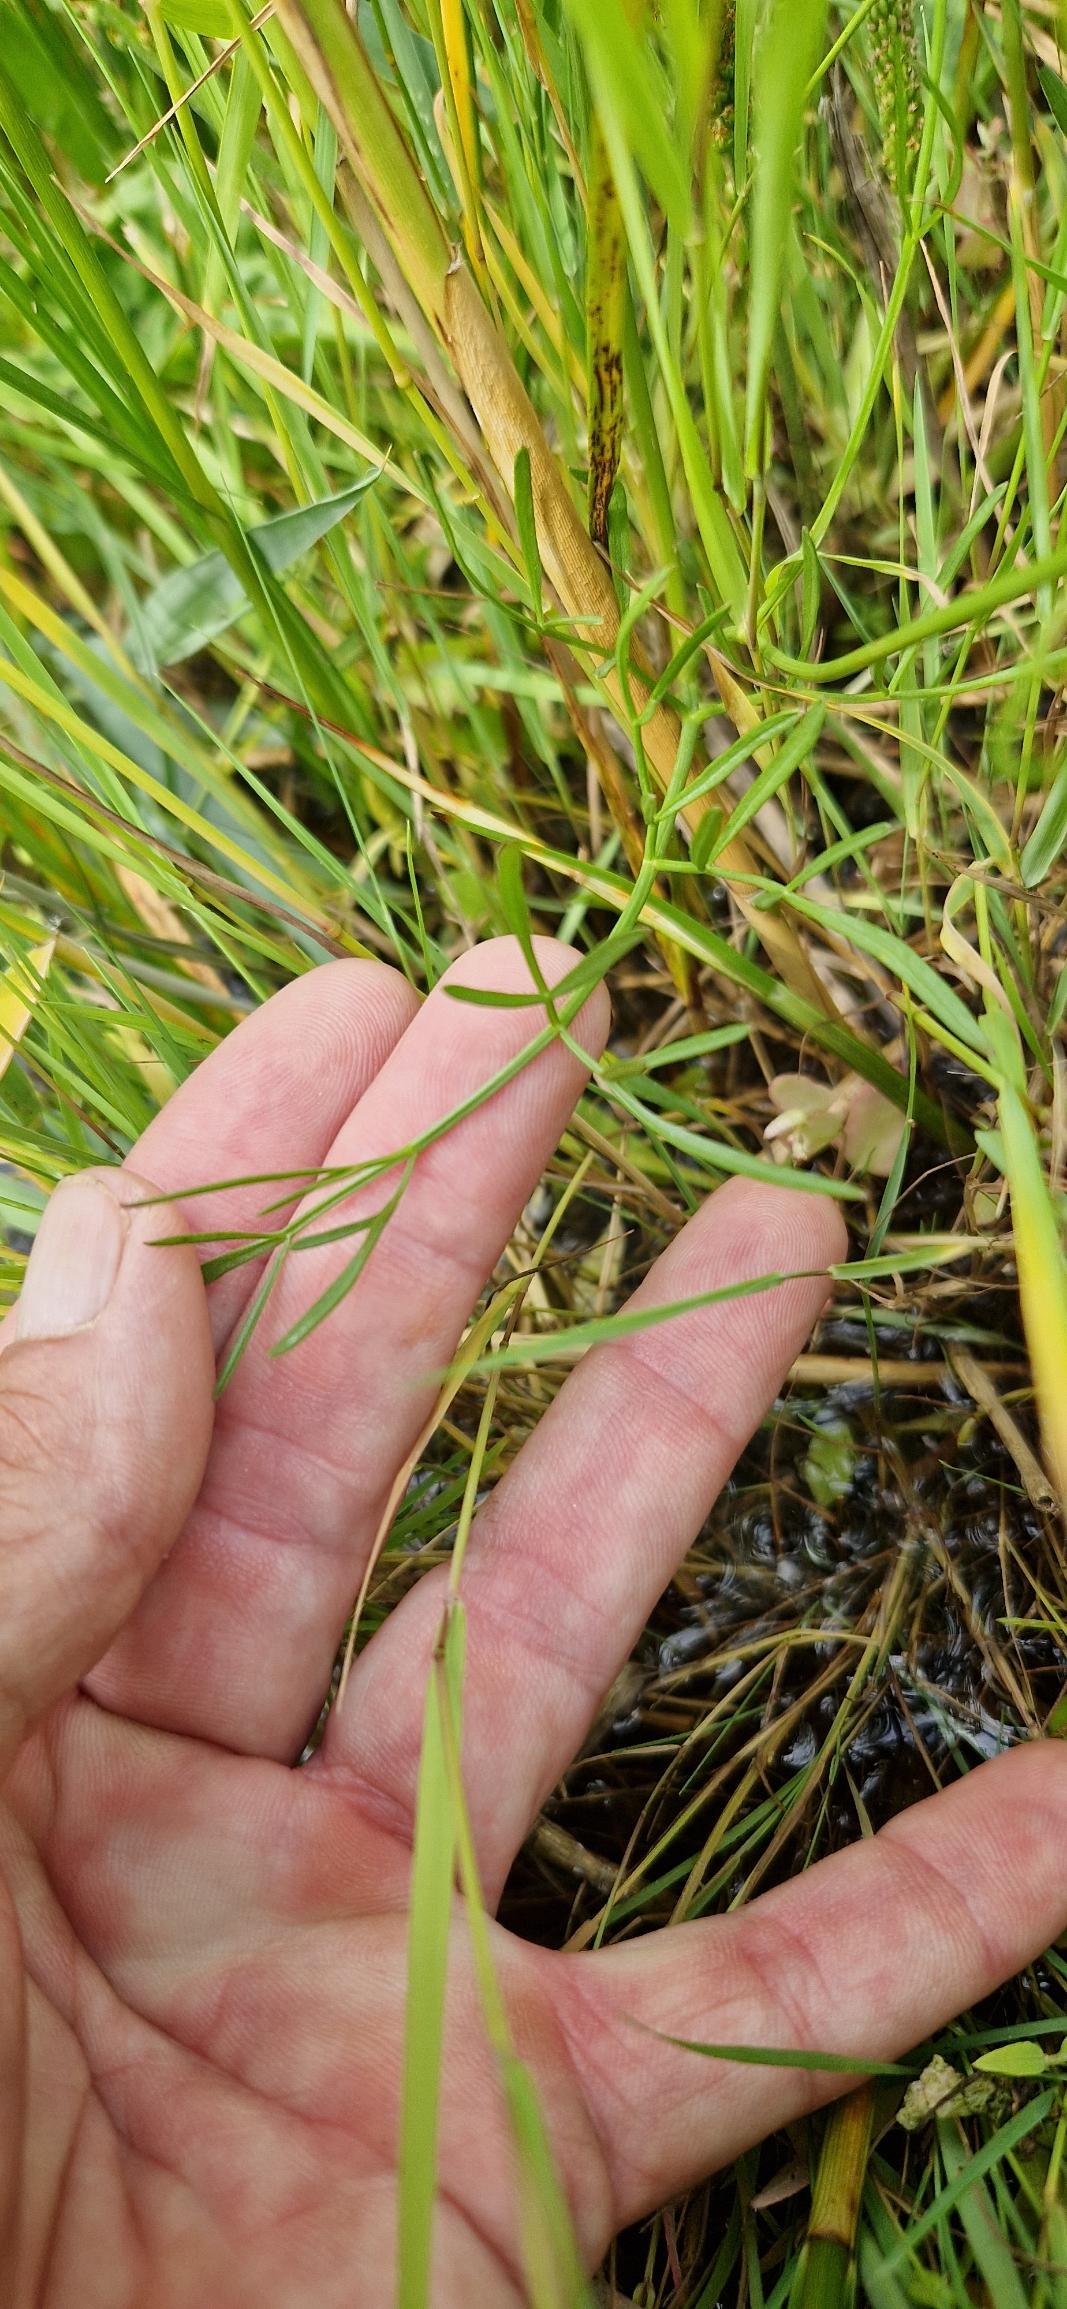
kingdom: Plantae
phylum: Tracheophyta
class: Magnoliopsida
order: Apiales
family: Apiaceae
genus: Oenanthe
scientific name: Oenanthe lachenalii
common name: Eng-klaseskærm
